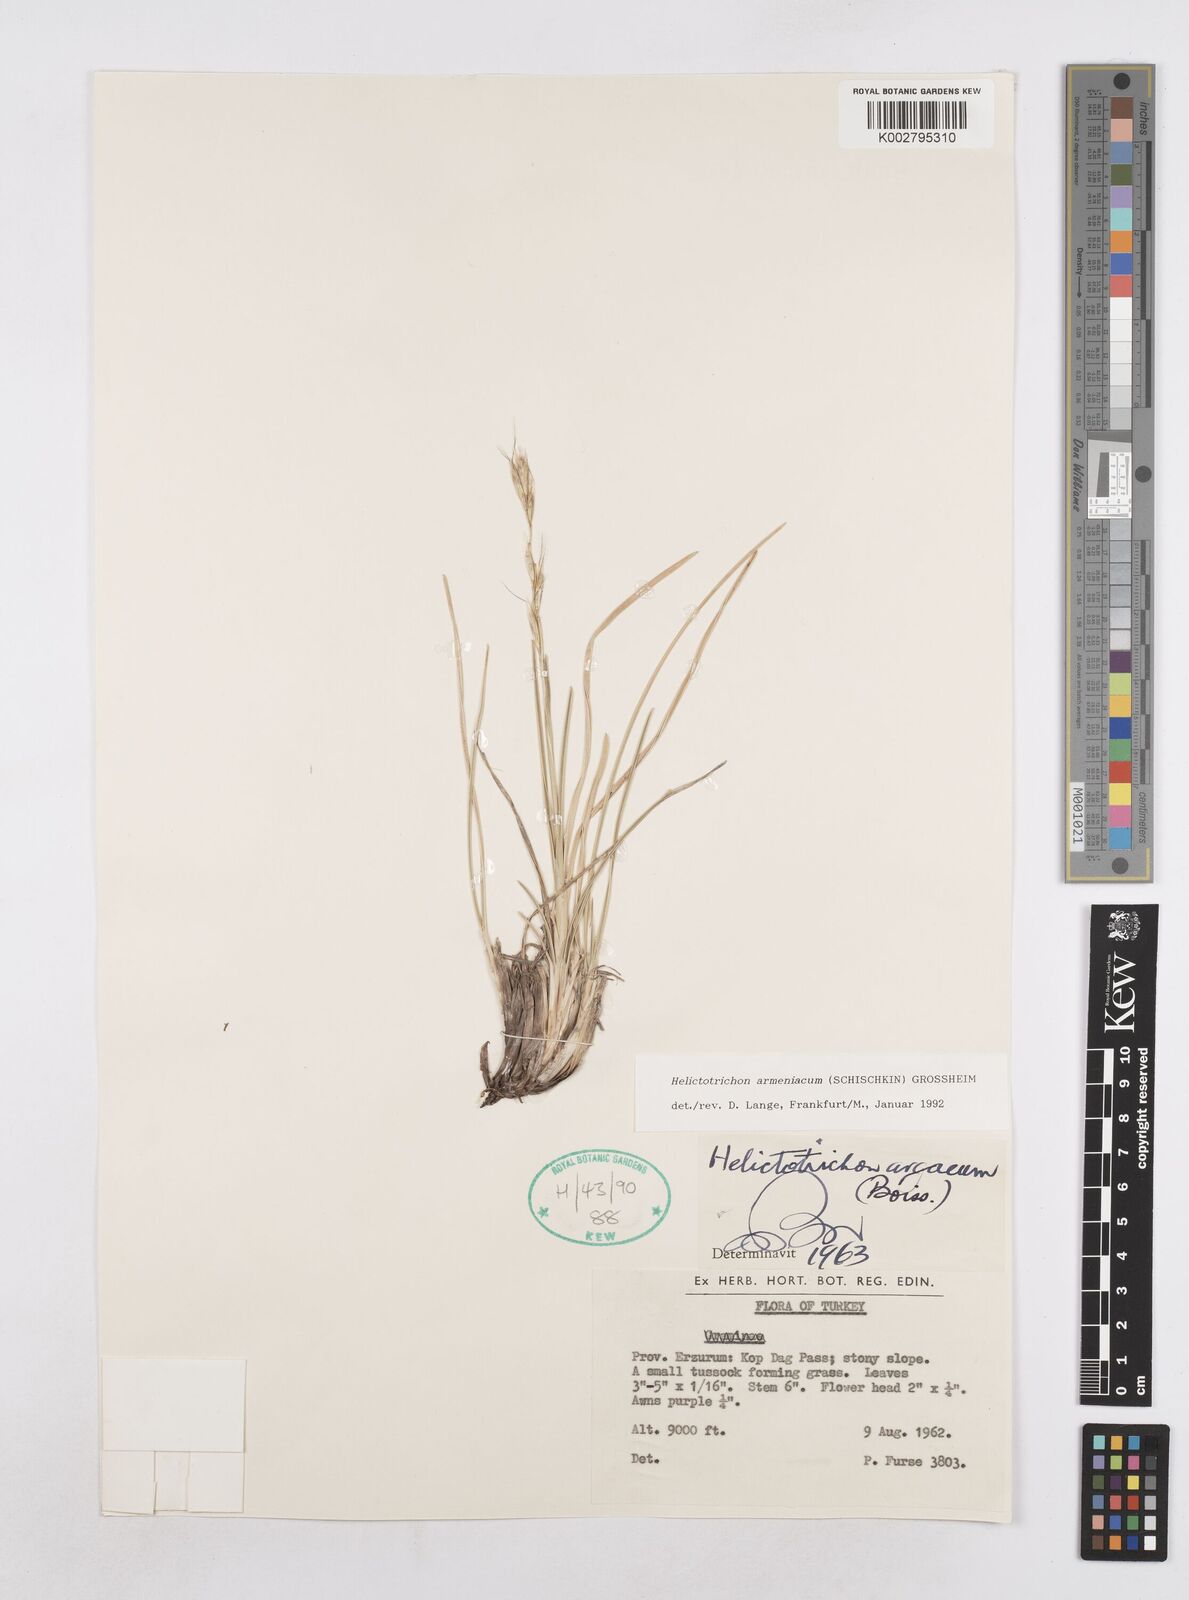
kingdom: Plantae
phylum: Tracheophyta
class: Liliopsida
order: Poales
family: Poaceae
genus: Helictochloa
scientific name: Helictochloa armeniaca
